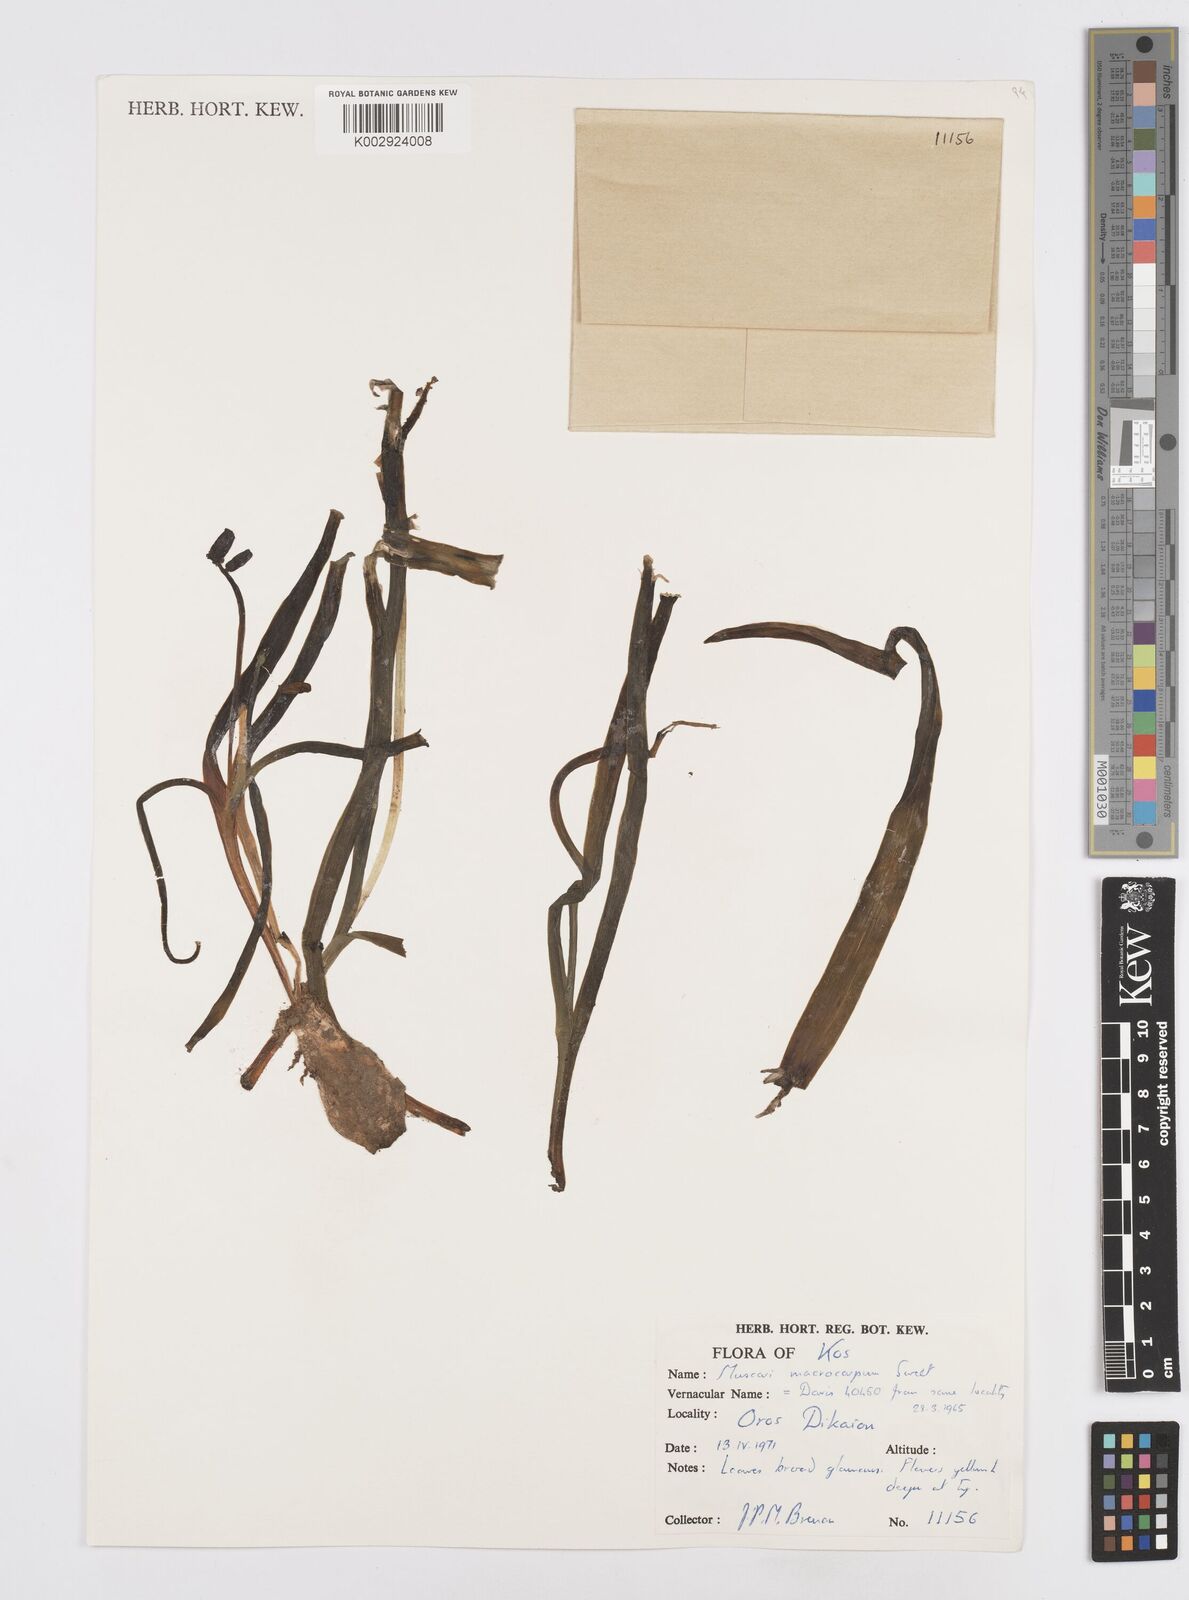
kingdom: Plantae
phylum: Tracheophyta
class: Liliopsida
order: Asparagales
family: Asparagaceae
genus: Muscarimia
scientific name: Muscarimia macrocarpa
